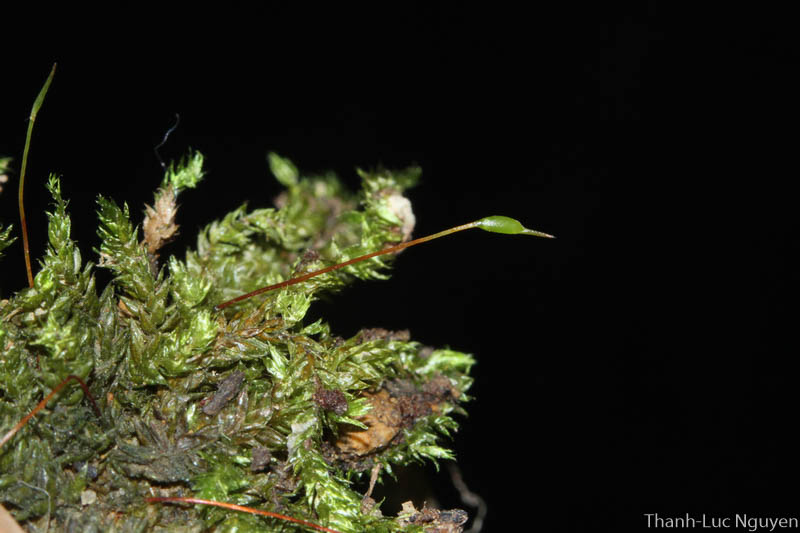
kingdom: Plantae
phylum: Bryophyta
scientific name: Bryophyta
